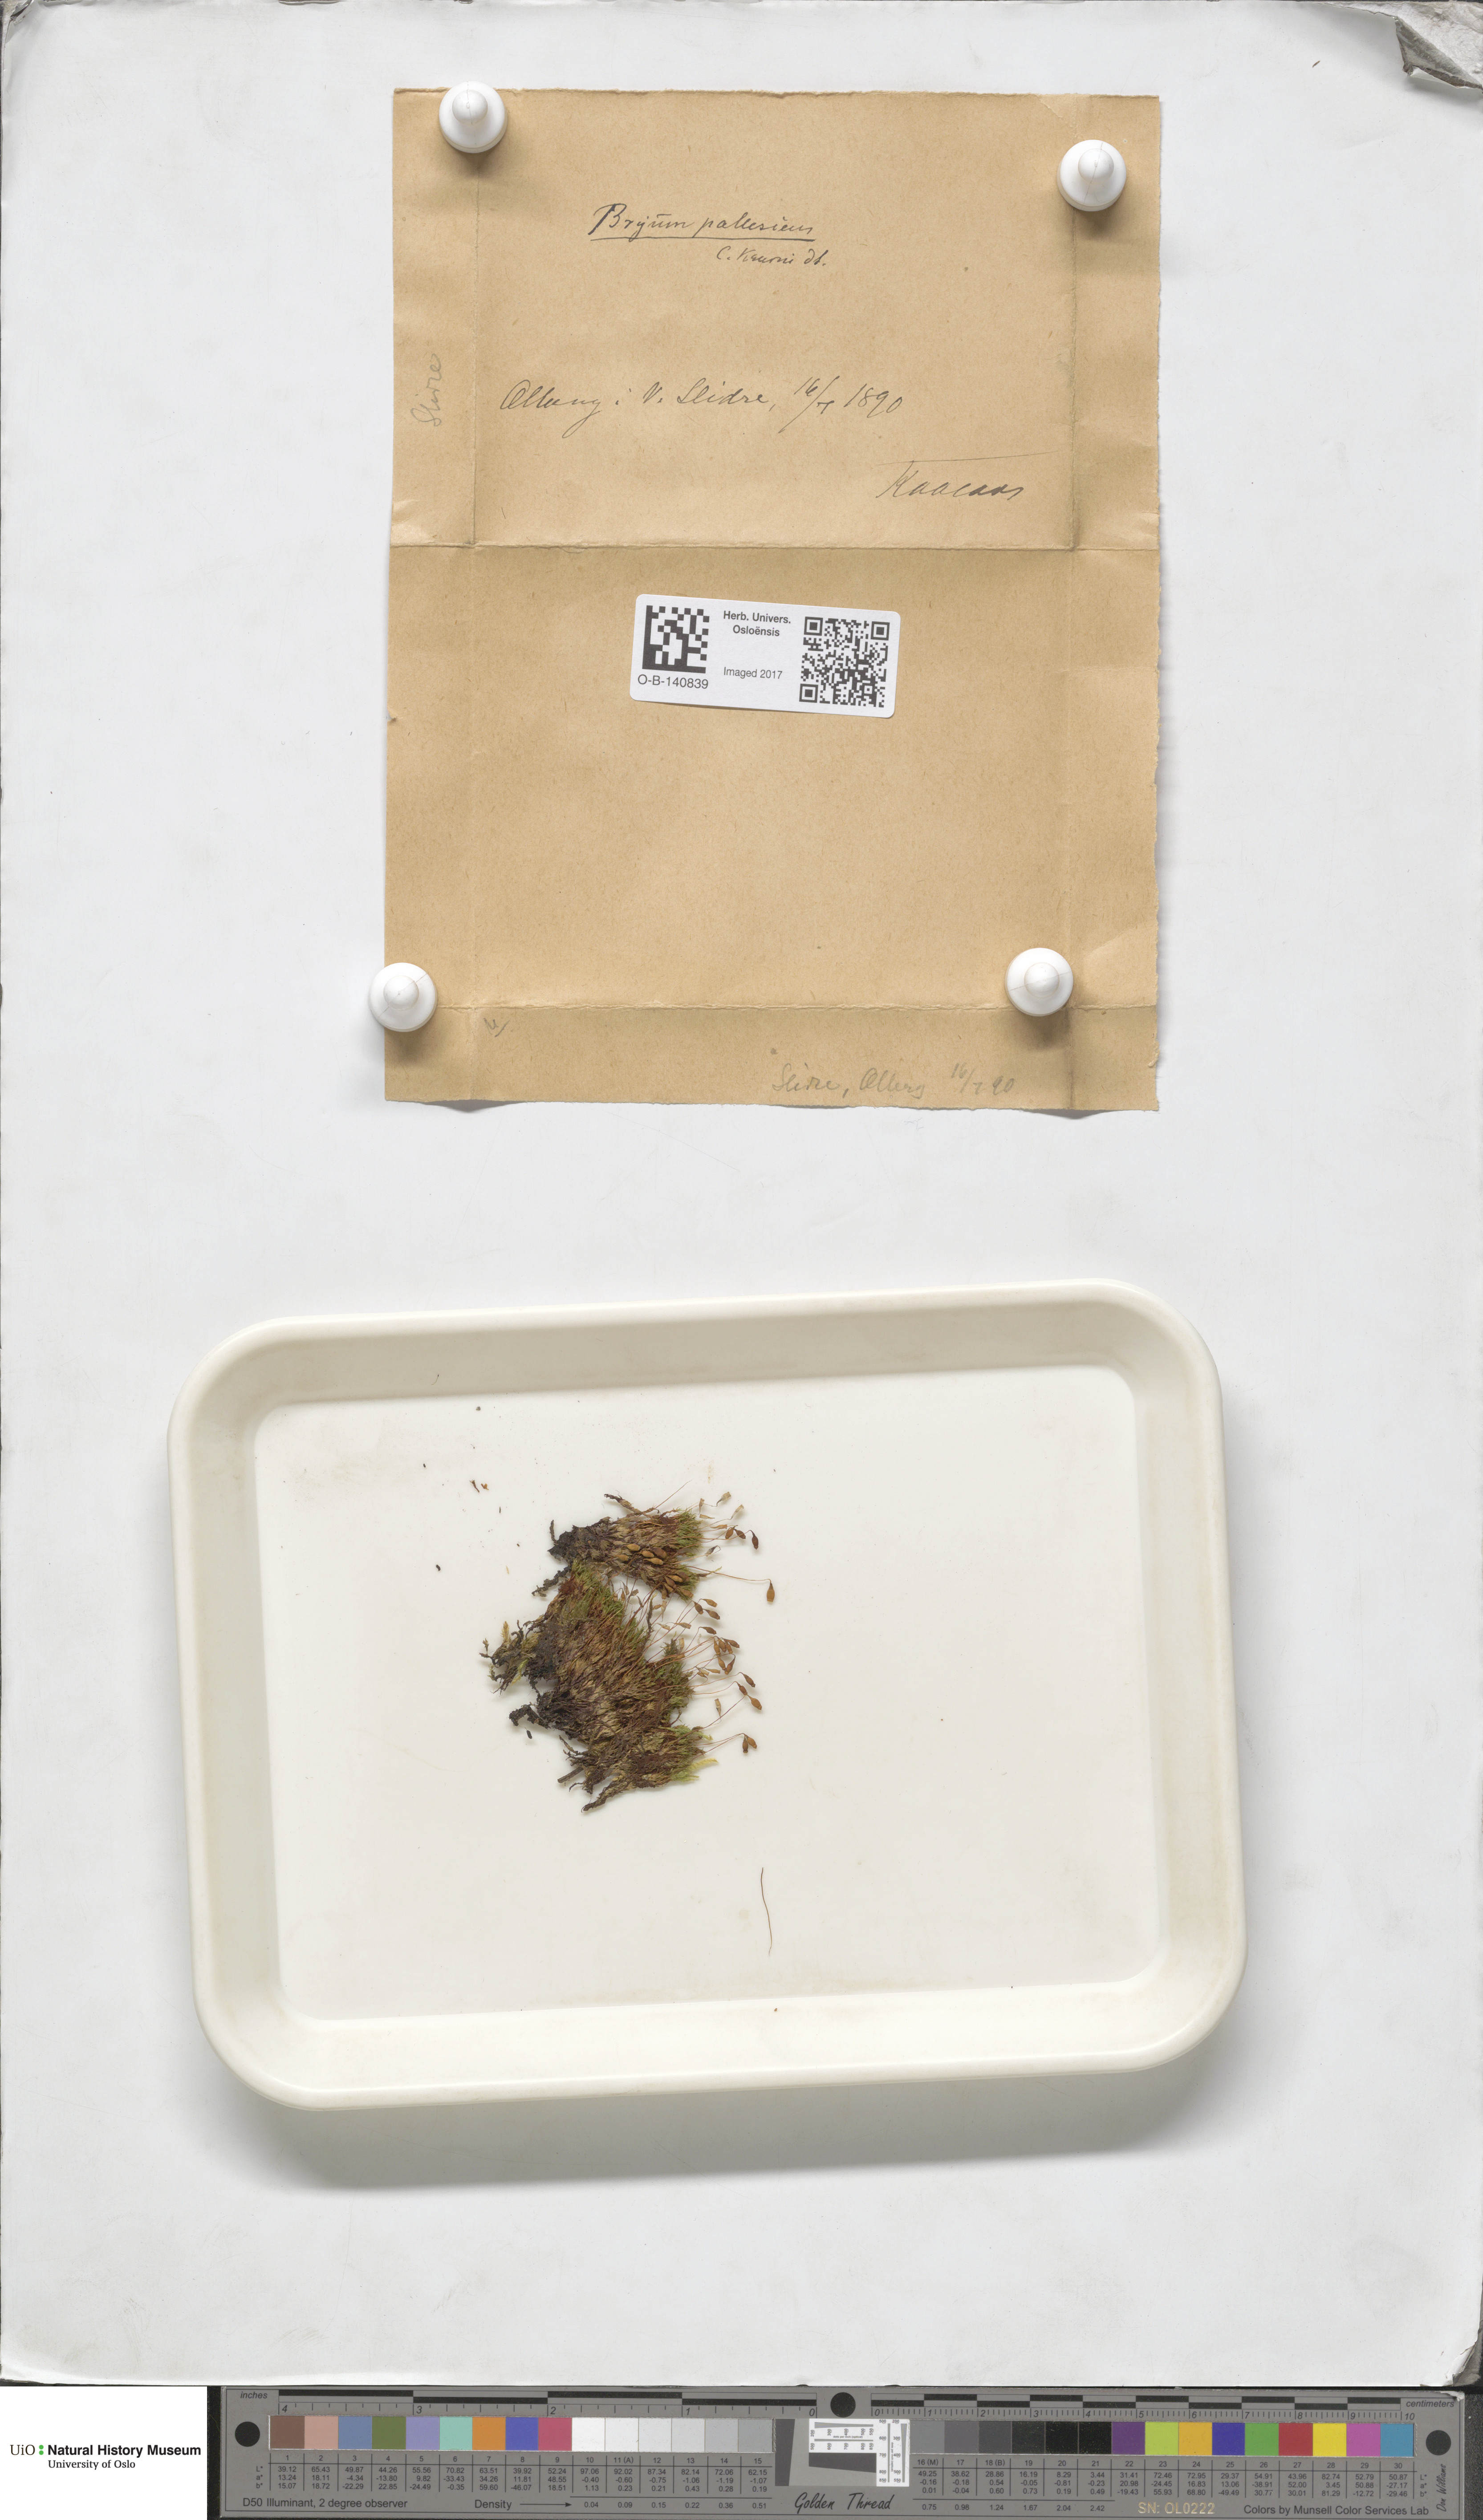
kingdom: Plantae
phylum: Bryophyta
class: Bryopsida
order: Bryales
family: Bryaceae
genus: Ptychostomum
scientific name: Ptychostomum pallescens
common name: Tall-clustered thread-moss
